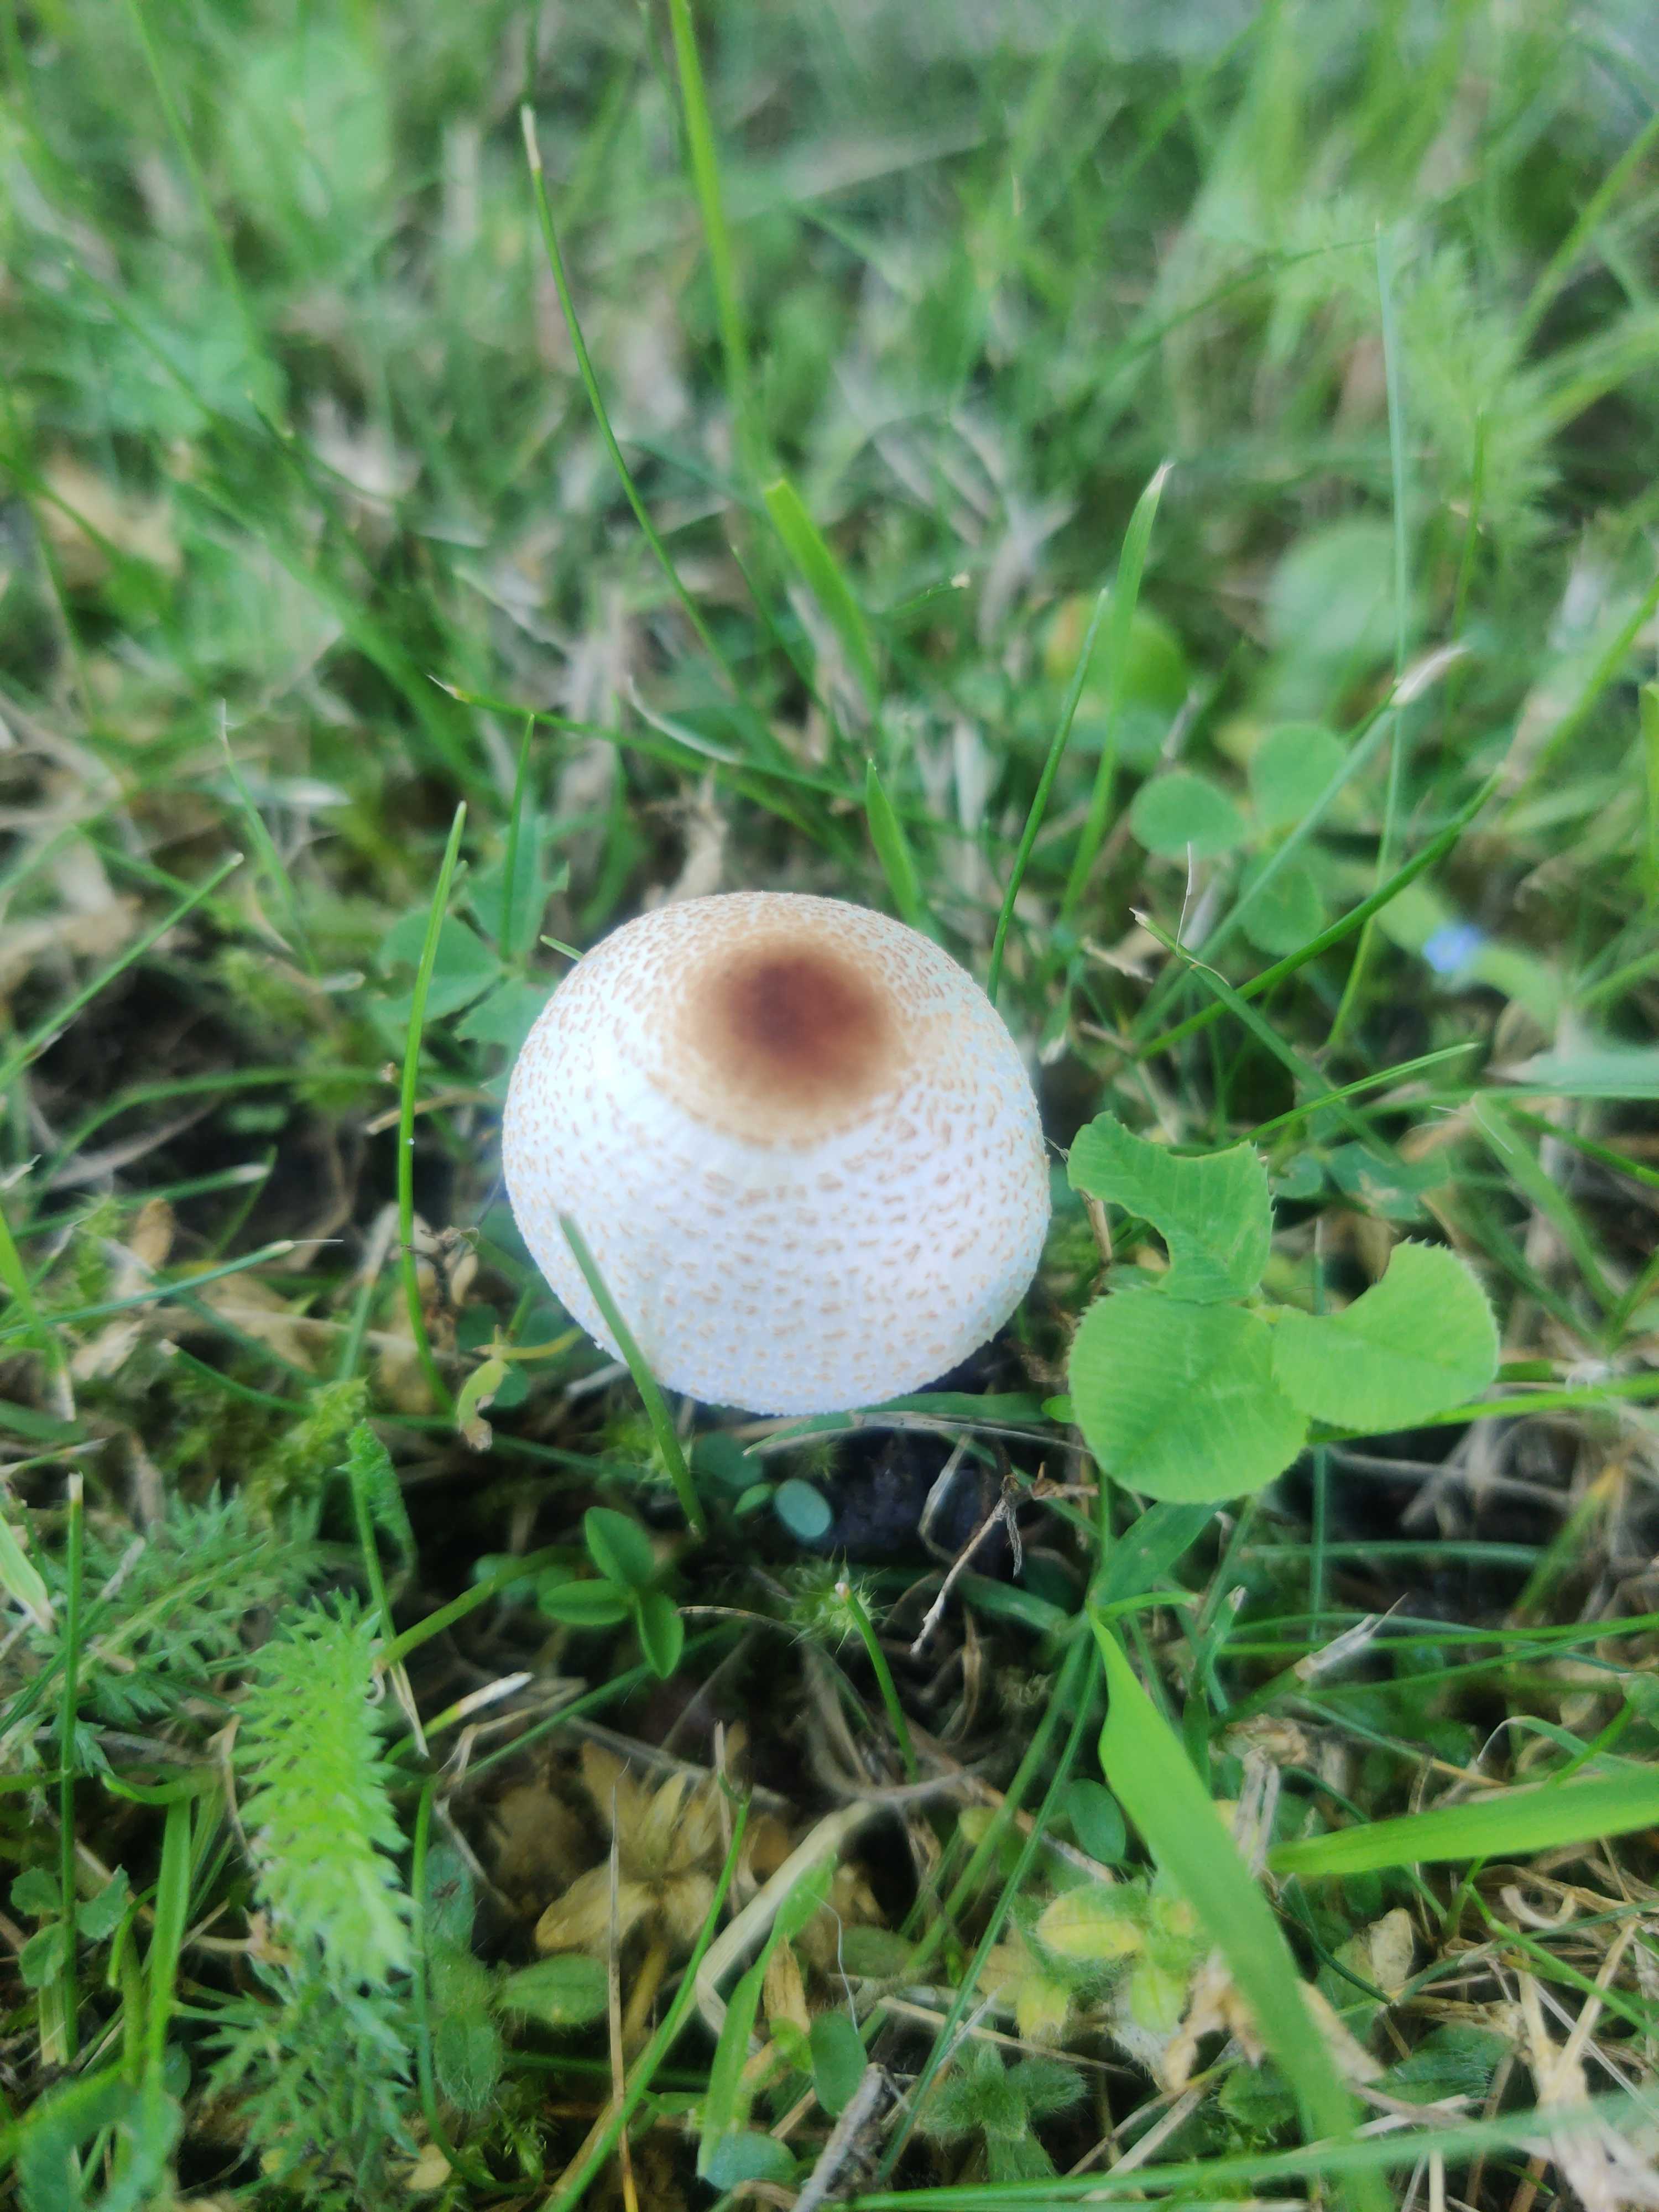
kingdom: Fungi
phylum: Basidiomycota
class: Agaricomycetes
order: Agaricales
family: Agaricaceae
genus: Lepiota
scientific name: Lepiota cristata
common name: stinkende parasolhat
